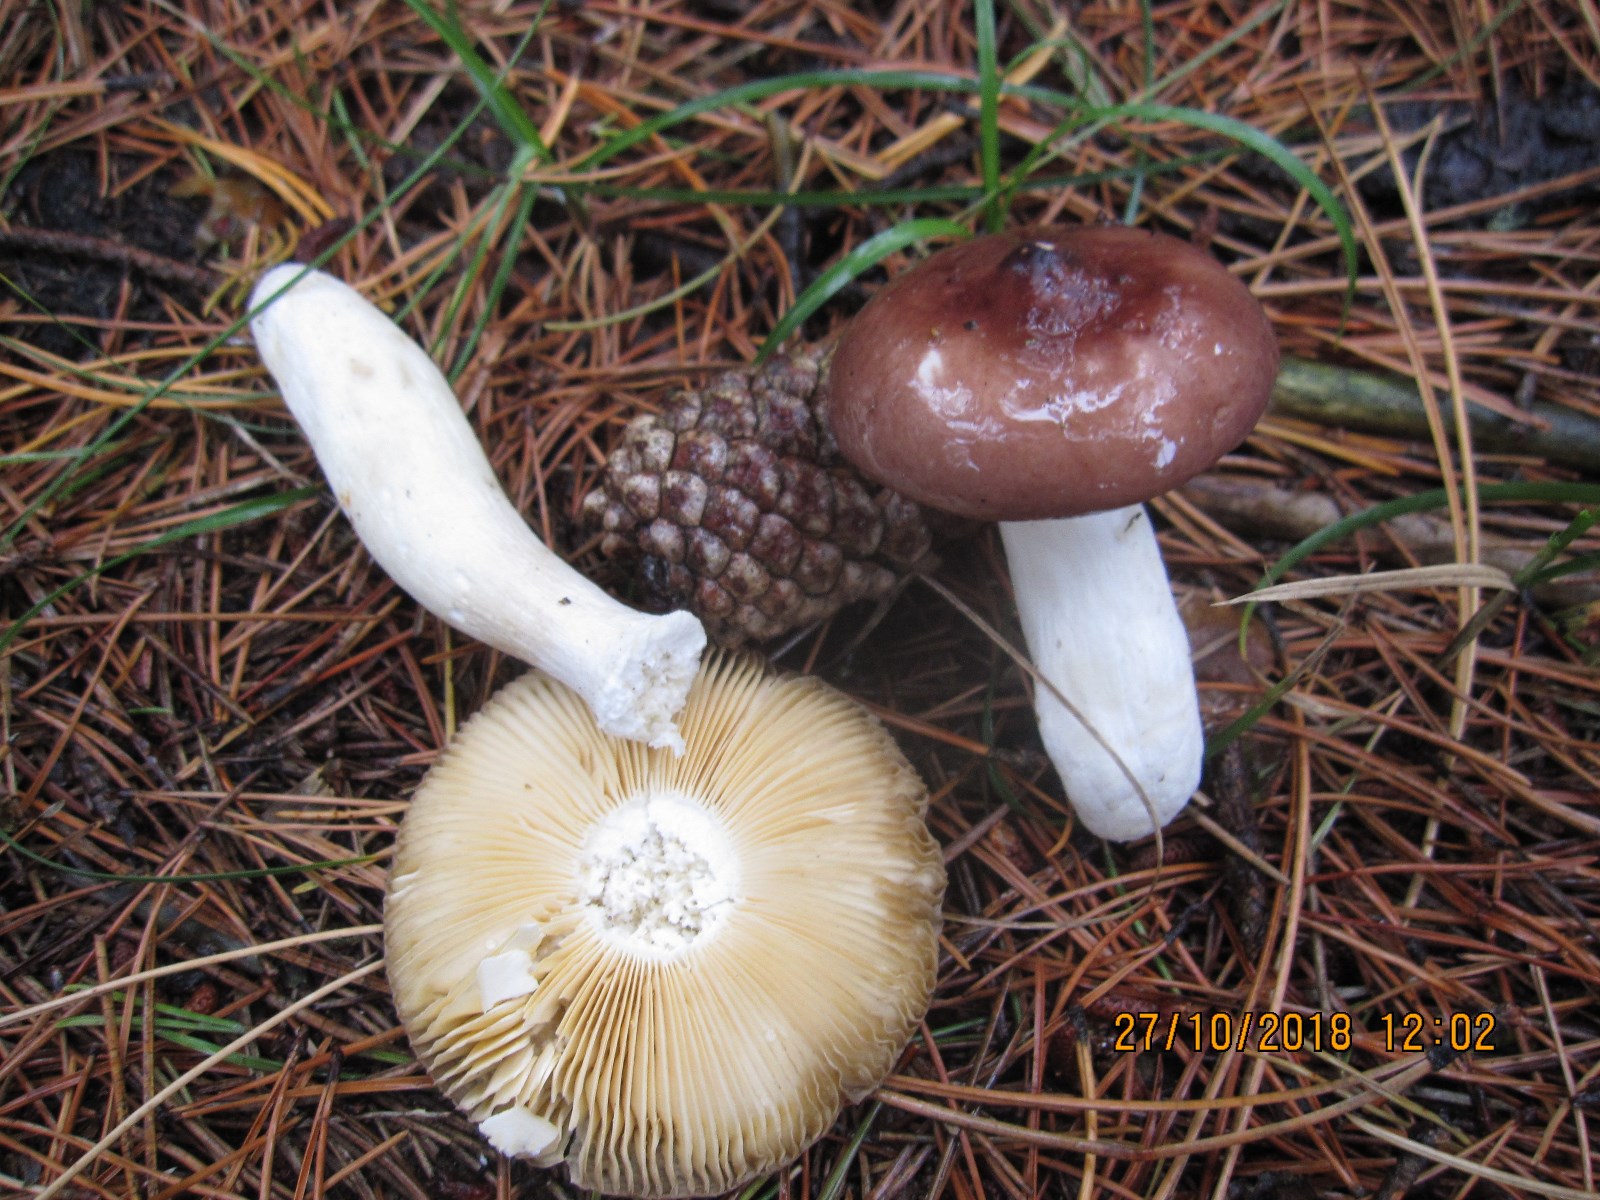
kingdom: Fungi
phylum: Basidiomycota
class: Agaricomycetes
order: Russulales
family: Russulaceae
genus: Russula
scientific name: Russula caerulea
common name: puklet skørhat
